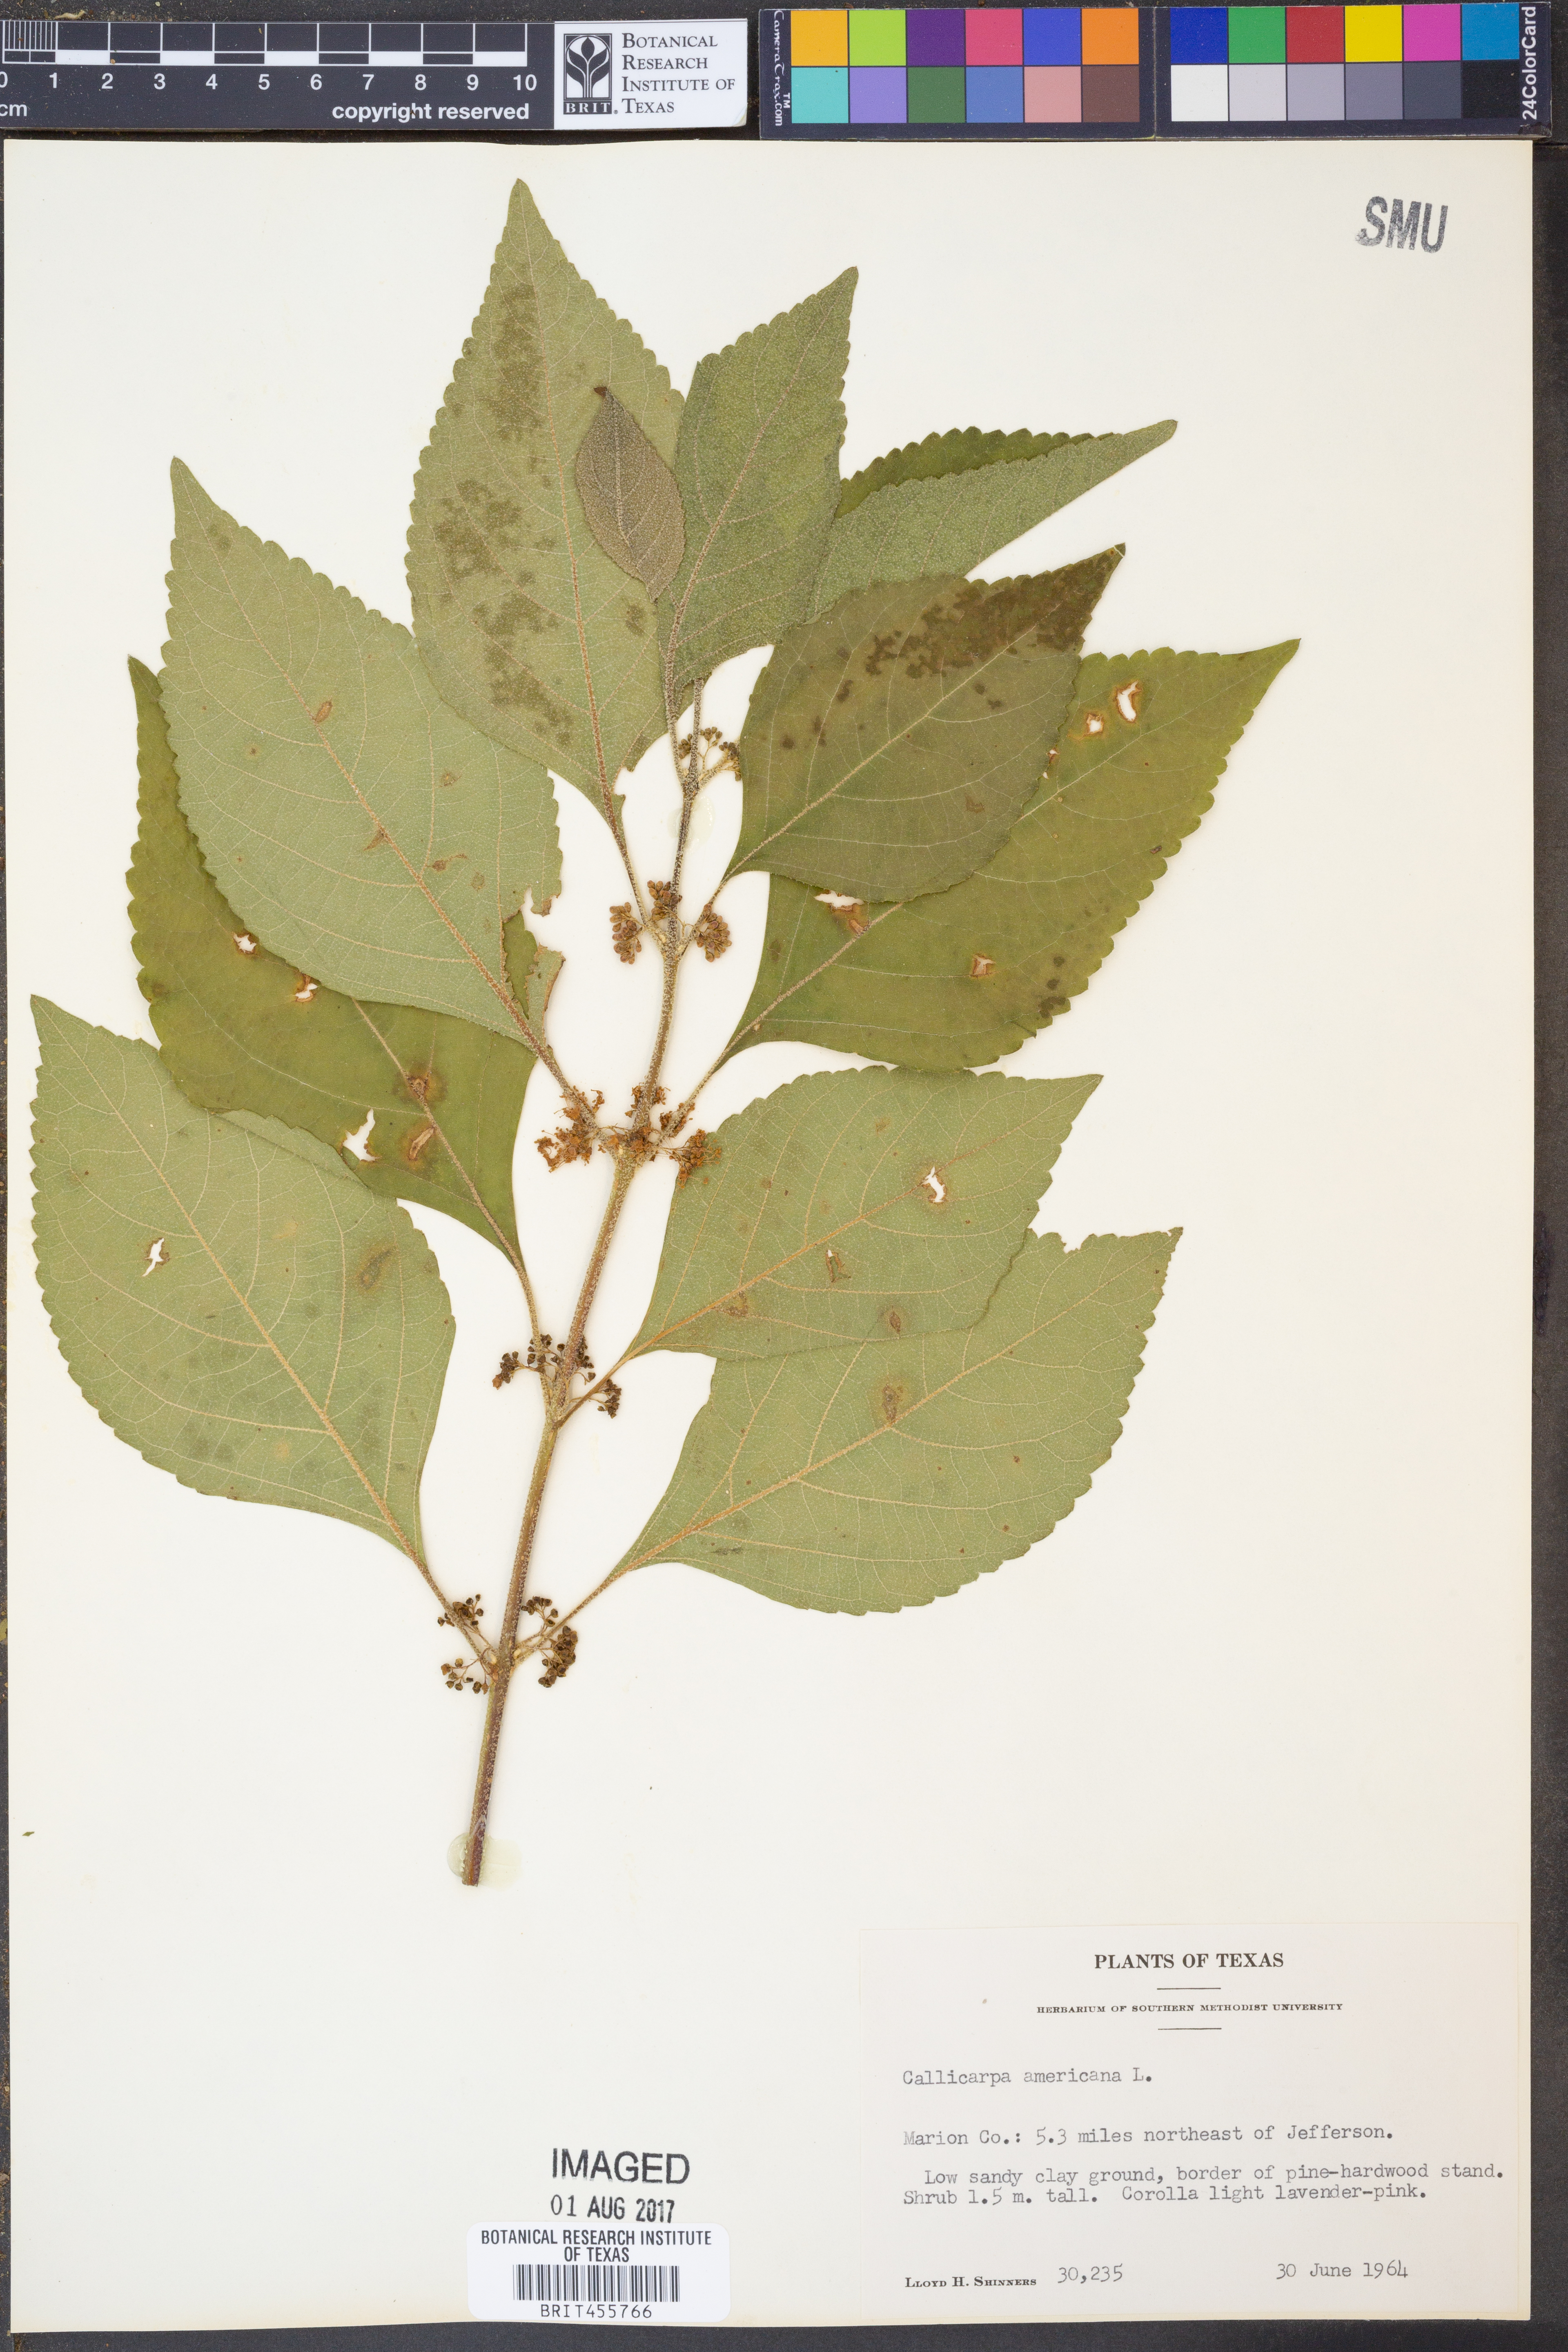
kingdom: Plantae
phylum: Tracheophyta
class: Magnoliopsida
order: Lamiales
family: Lamiaceae
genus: Callicarpa
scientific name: Callicarpa americana
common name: American beautyberry
